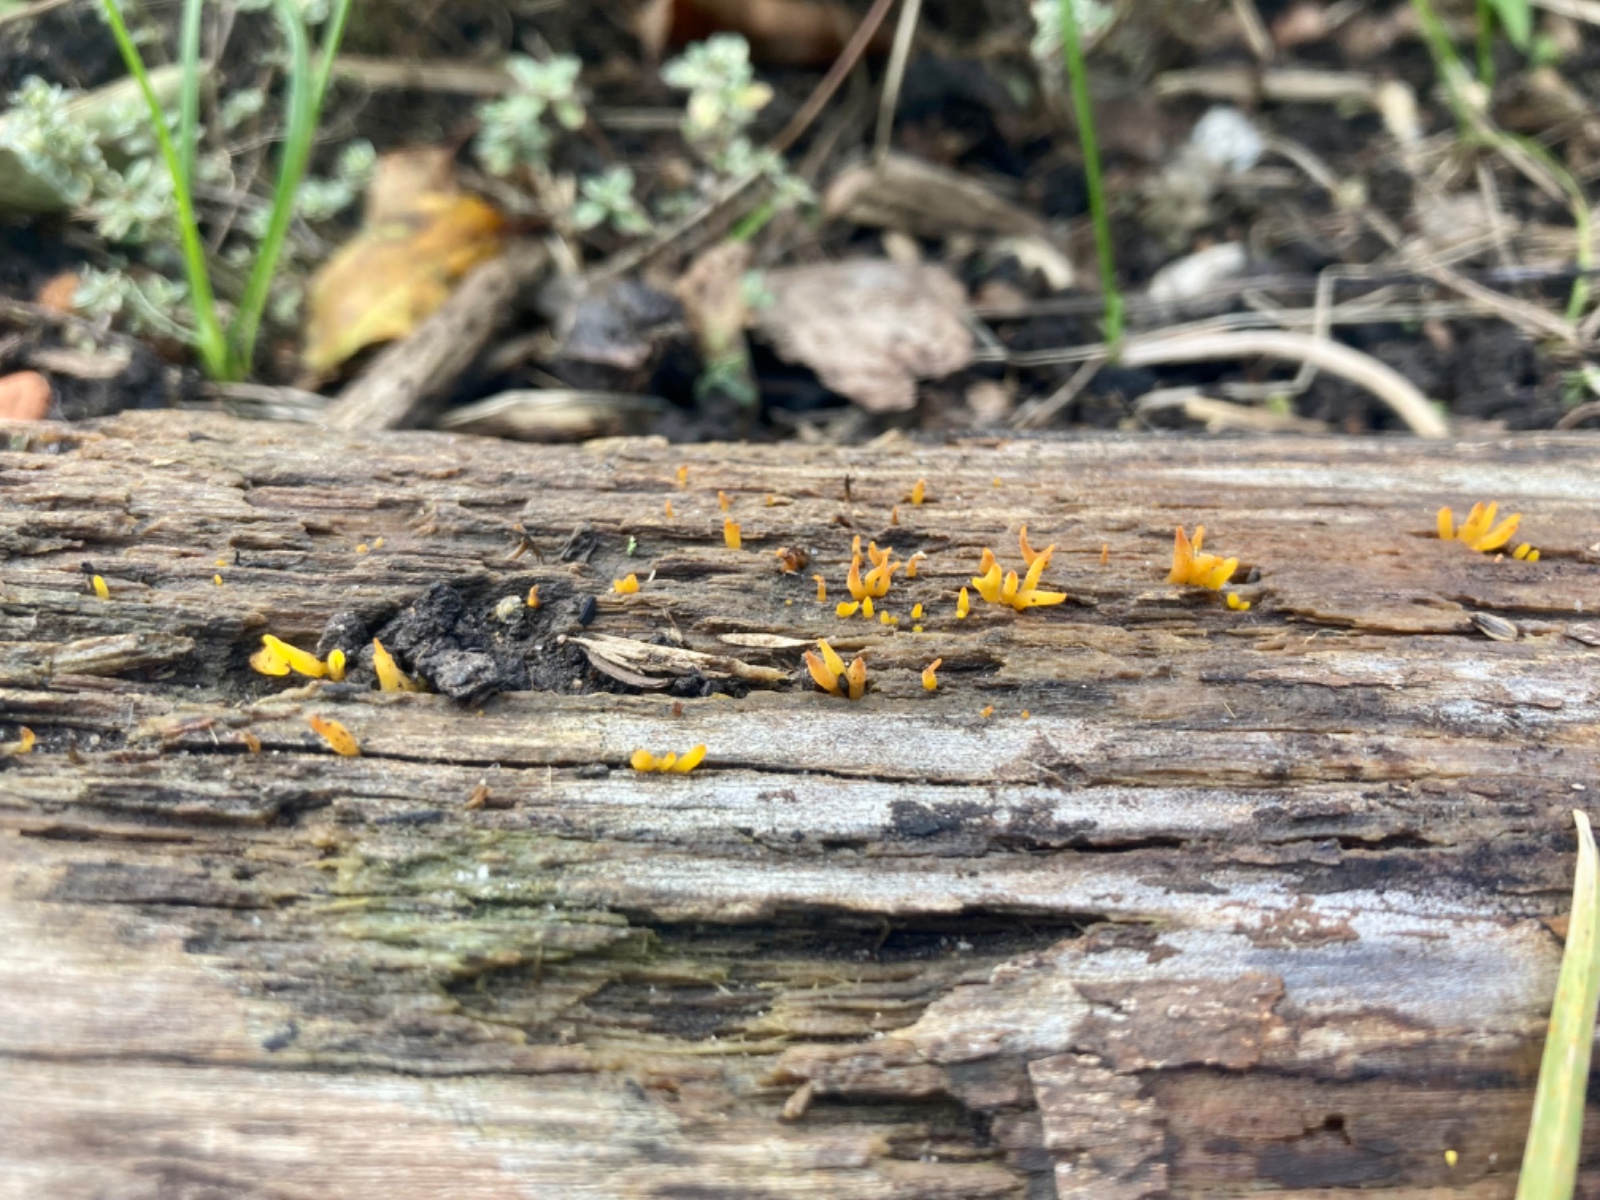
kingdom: Fungi
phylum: Basidiomycota
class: Dacrymycetes
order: Dacrymycetales
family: Dacrymycetaceae
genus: Calocera
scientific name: Calocera cornea
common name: liden guldgaffel
